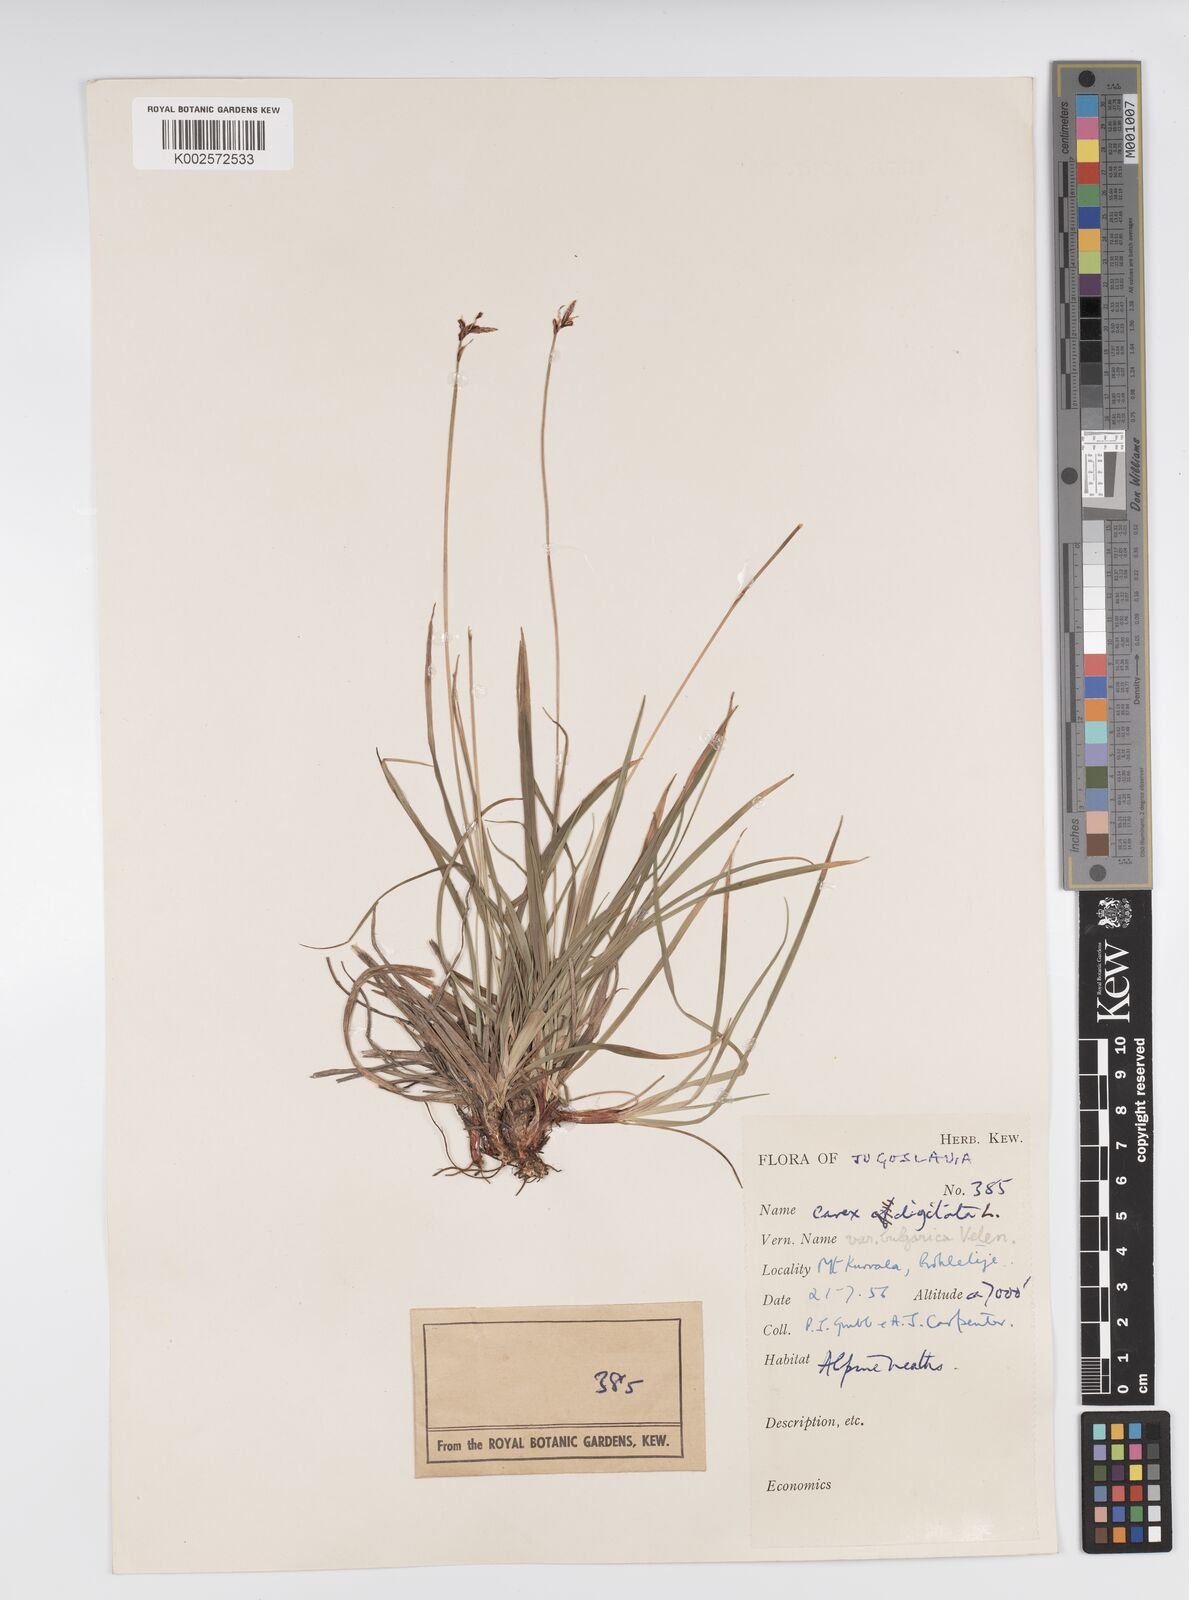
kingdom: Plantae
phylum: Tracheophyta
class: Liliopsida
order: Poales
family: Cyperaceae
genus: Carex
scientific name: Carex digitata
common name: Fingered sedge
